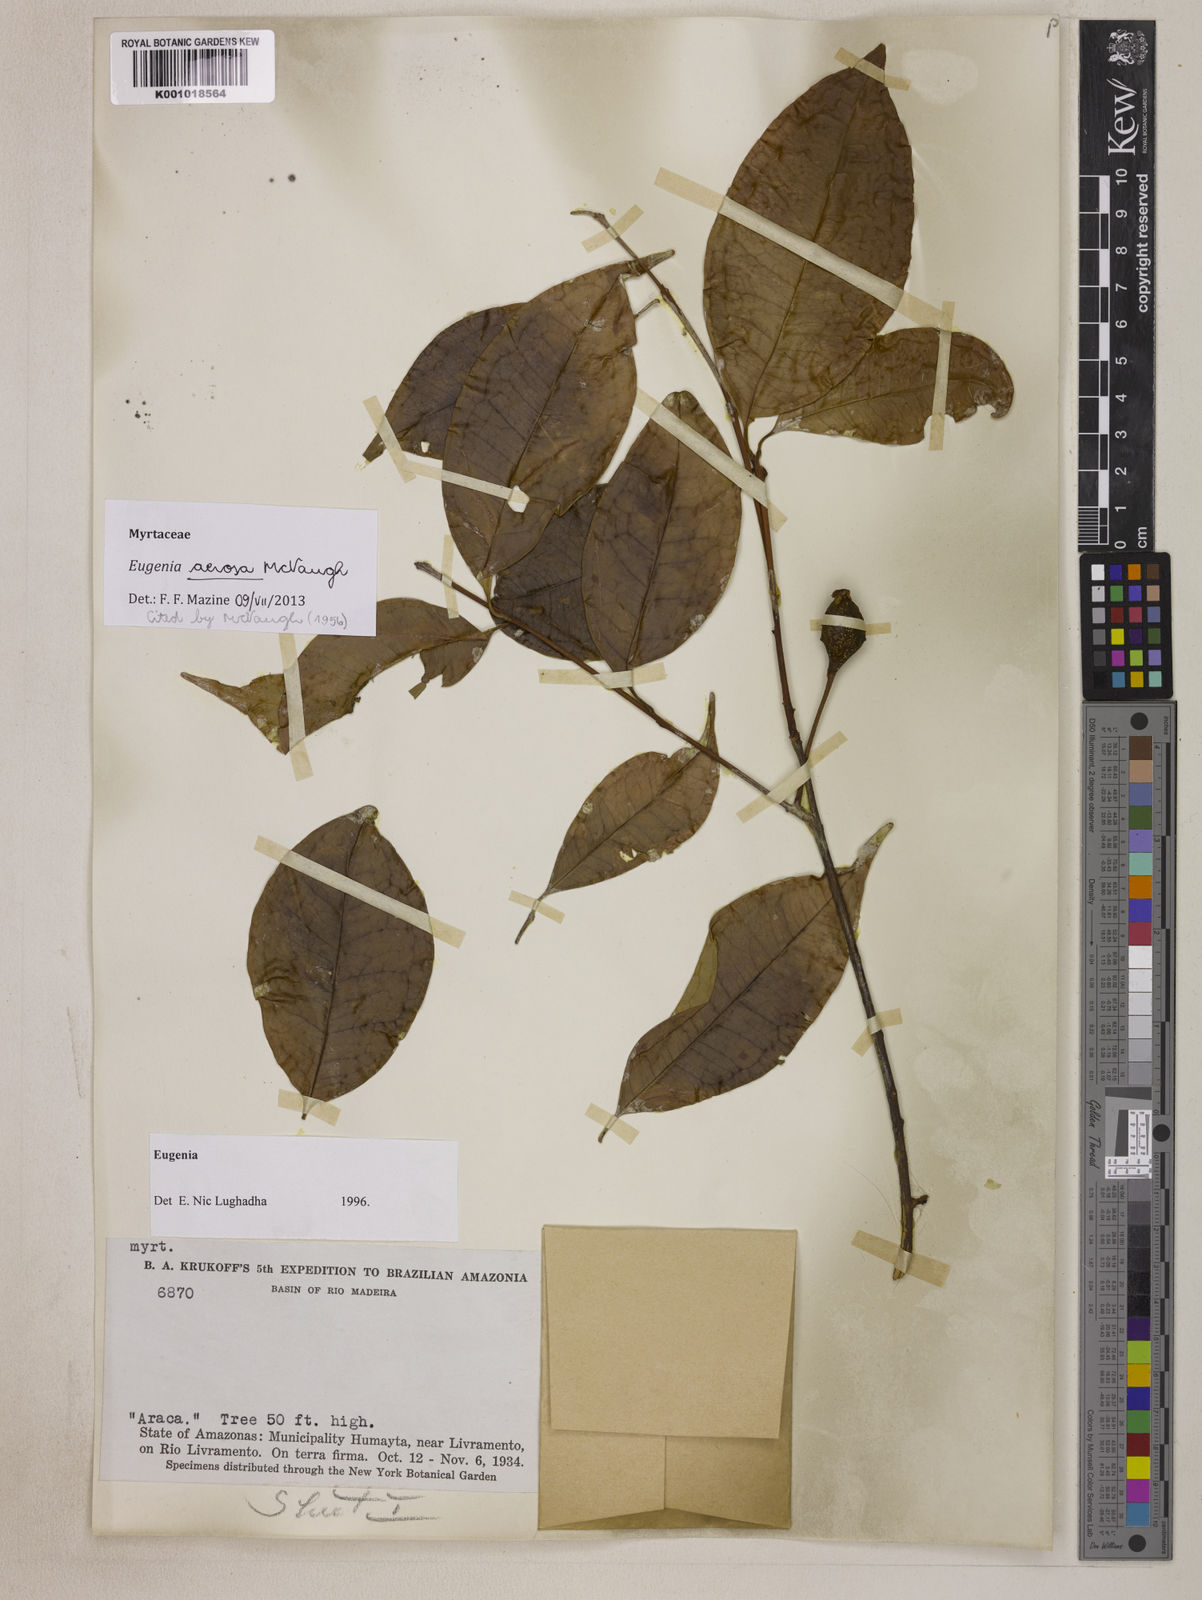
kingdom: Plantae
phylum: Tracheophyta
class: Magnoliopsida
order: Myrtales
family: Myrtaceae
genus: Eugenia
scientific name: Eugenia aerosa
